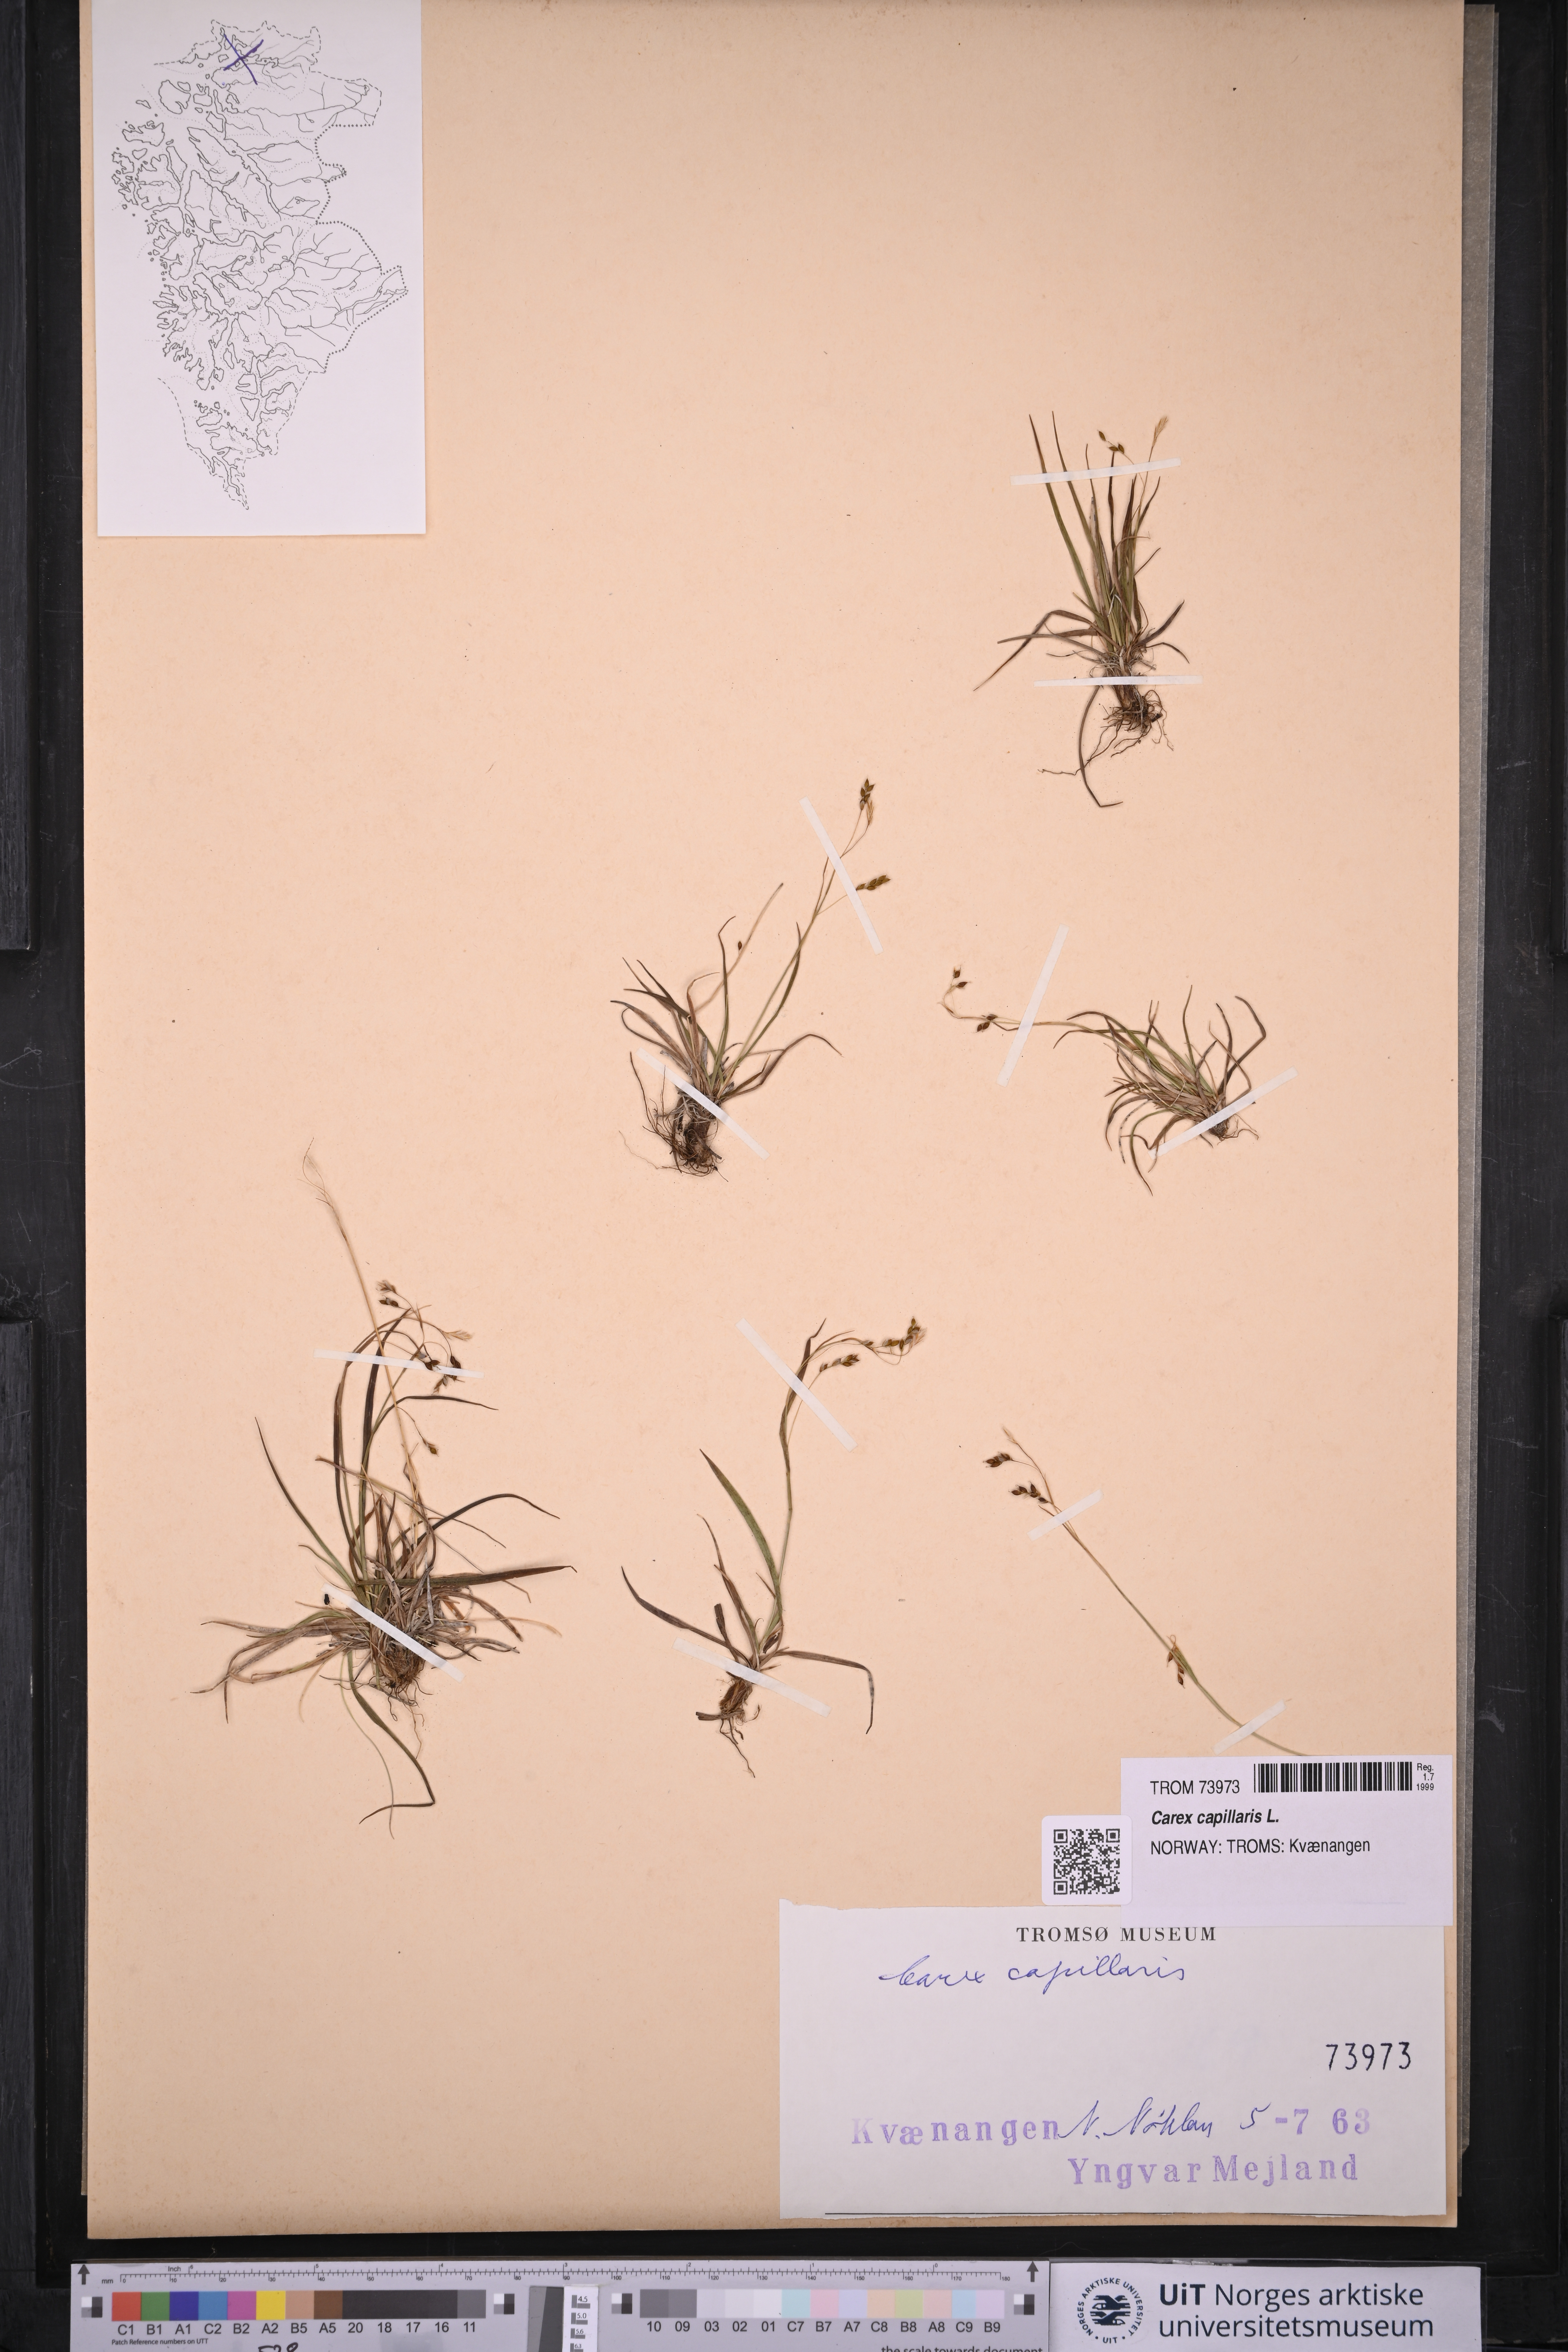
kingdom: Plantae
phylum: Tracheophyta
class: Liliopsida
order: Poales
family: Cyperaceae
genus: Carex
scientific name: Carex capillaris
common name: Hair sedge
